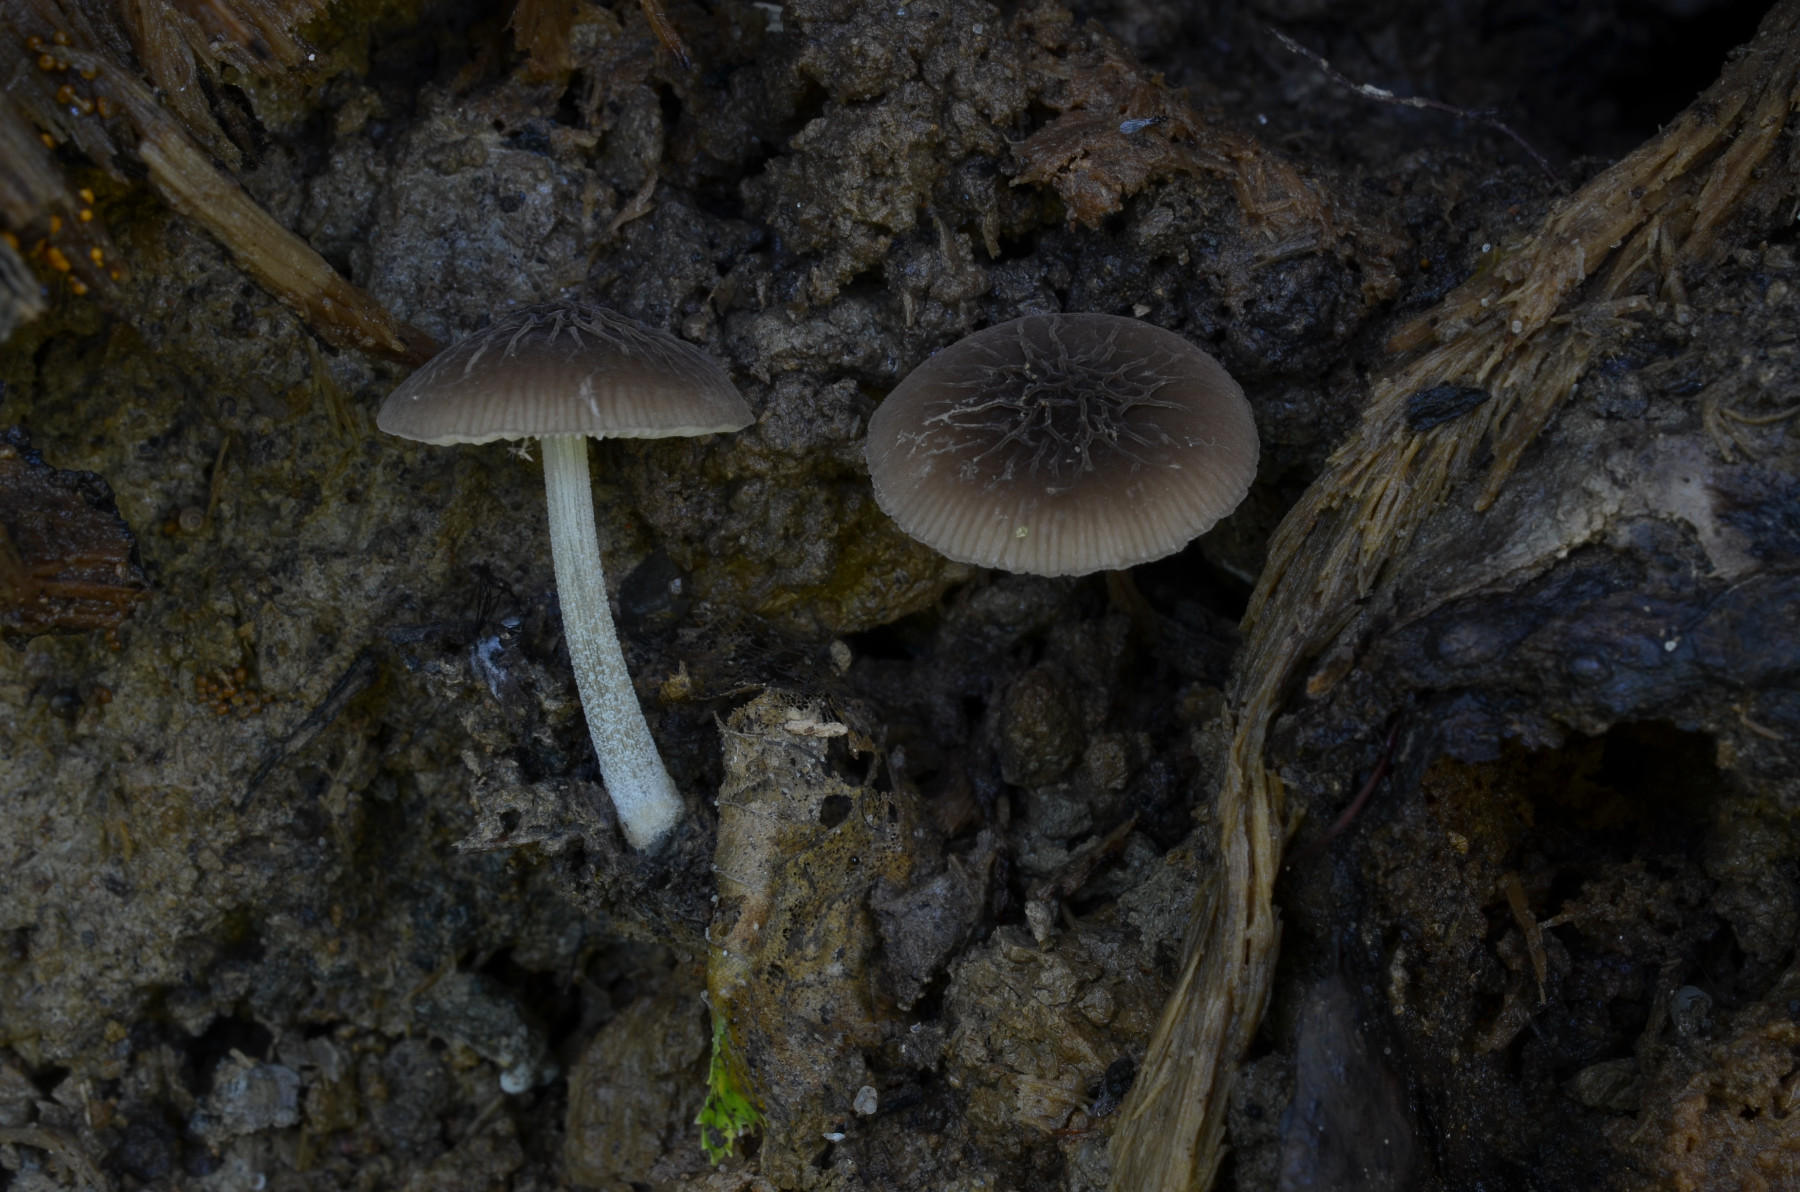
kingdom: Fungi
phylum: Basidiomycota
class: Agaricomycetes
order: Agaricales
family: Pluteaceae
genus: Pluteus
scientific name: Pluteus diverticulatus
